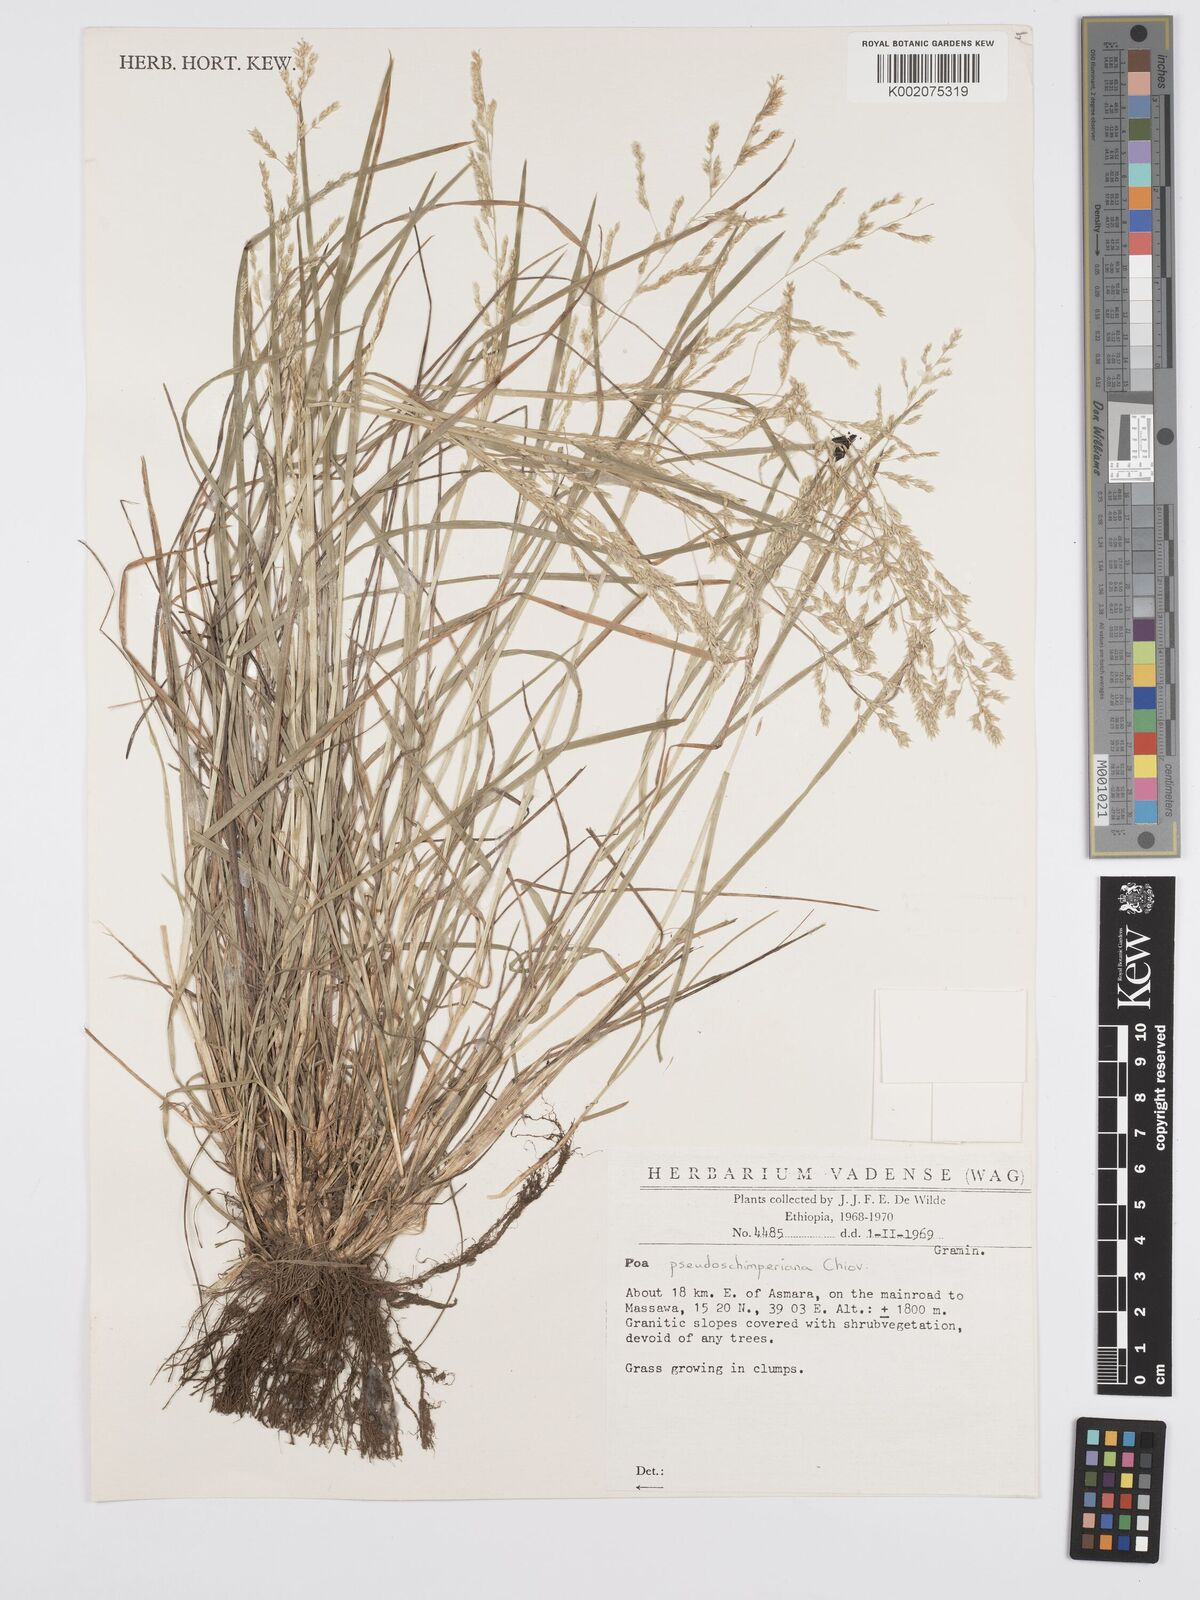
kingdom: Plantae
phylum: Tracheophyta
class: Liliopsida
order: Poales
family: Poaceae
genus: Poa
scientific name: Poa pseudoschimperiana
